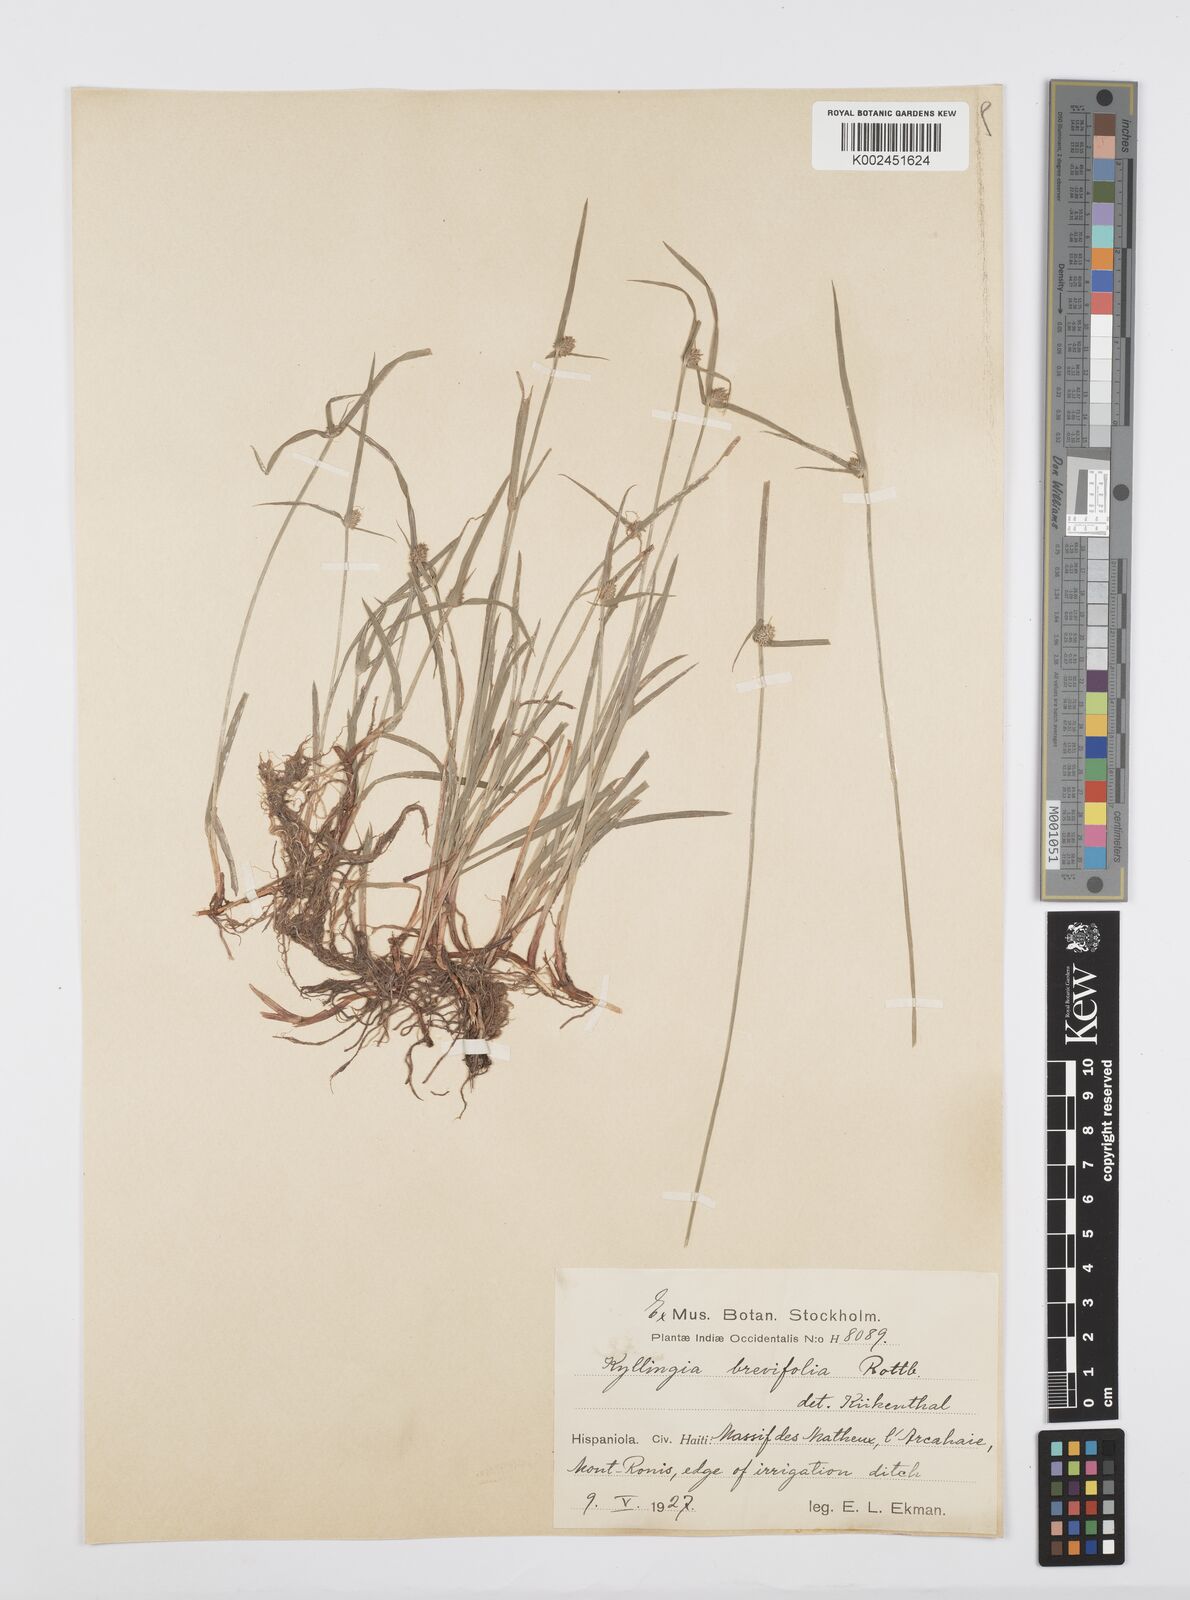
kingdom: Plantae
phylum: Tracheophyta
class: Liliopsida
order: Poales
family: Cyperaceae
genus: Cyperus
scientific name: Cyperus brevifolius
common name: Globe kyllinga
